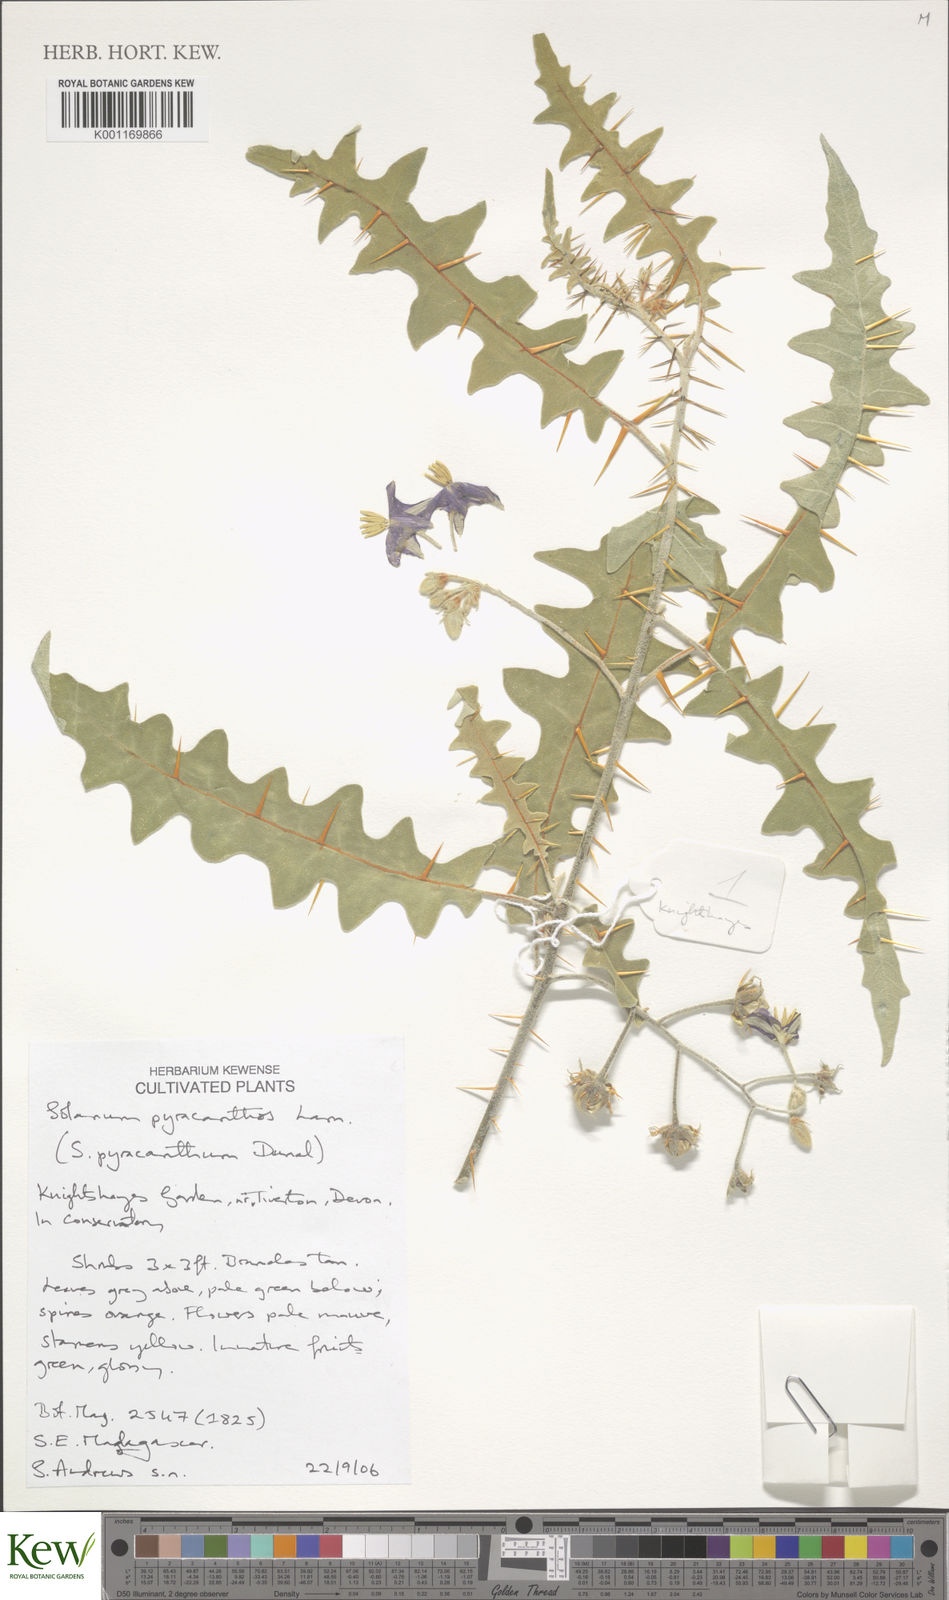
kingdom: Plantae
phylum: Tracheophyta
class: Magnoliopsida
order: Solanales
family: Solanaceae
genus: Solanum
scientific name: Solanum pyracanthos
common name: Porcupine-tomato
